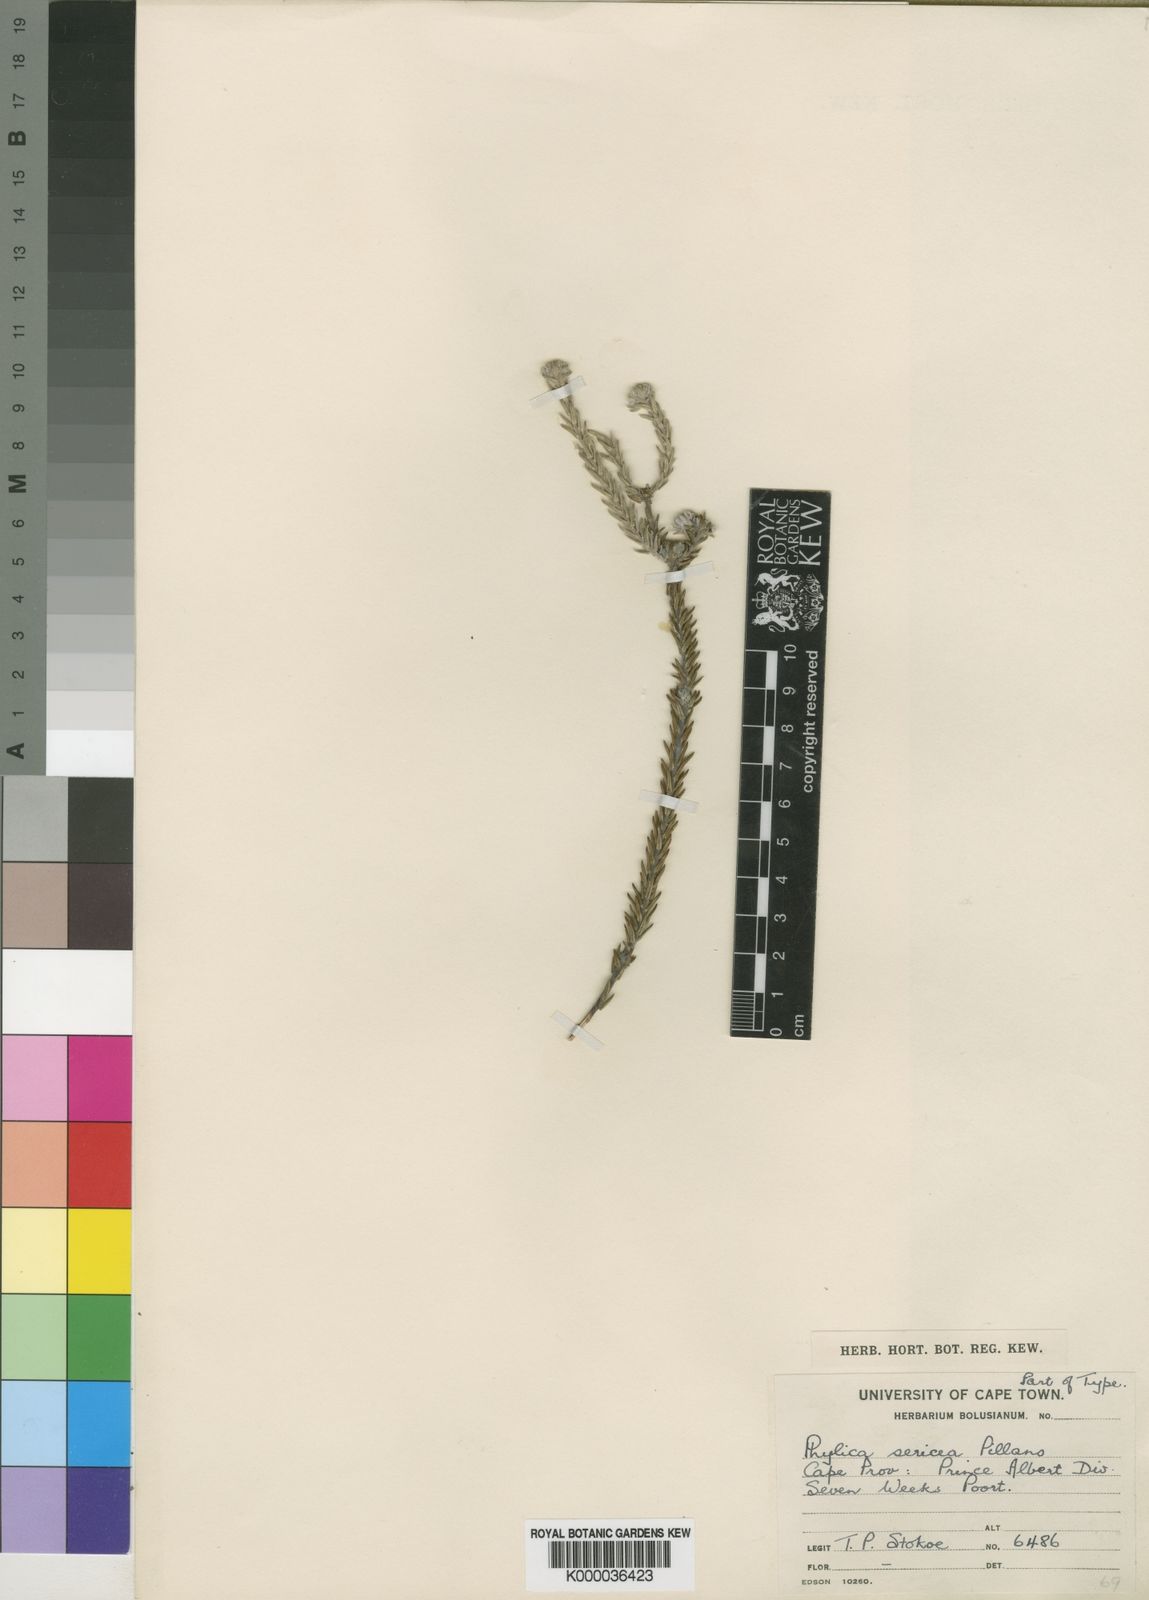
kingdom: Plantae
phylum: Tracheophyta
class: Magnoliopsida
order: Rosales
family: Rhamnaceae
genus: Phylica
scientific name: Phylica sericea
